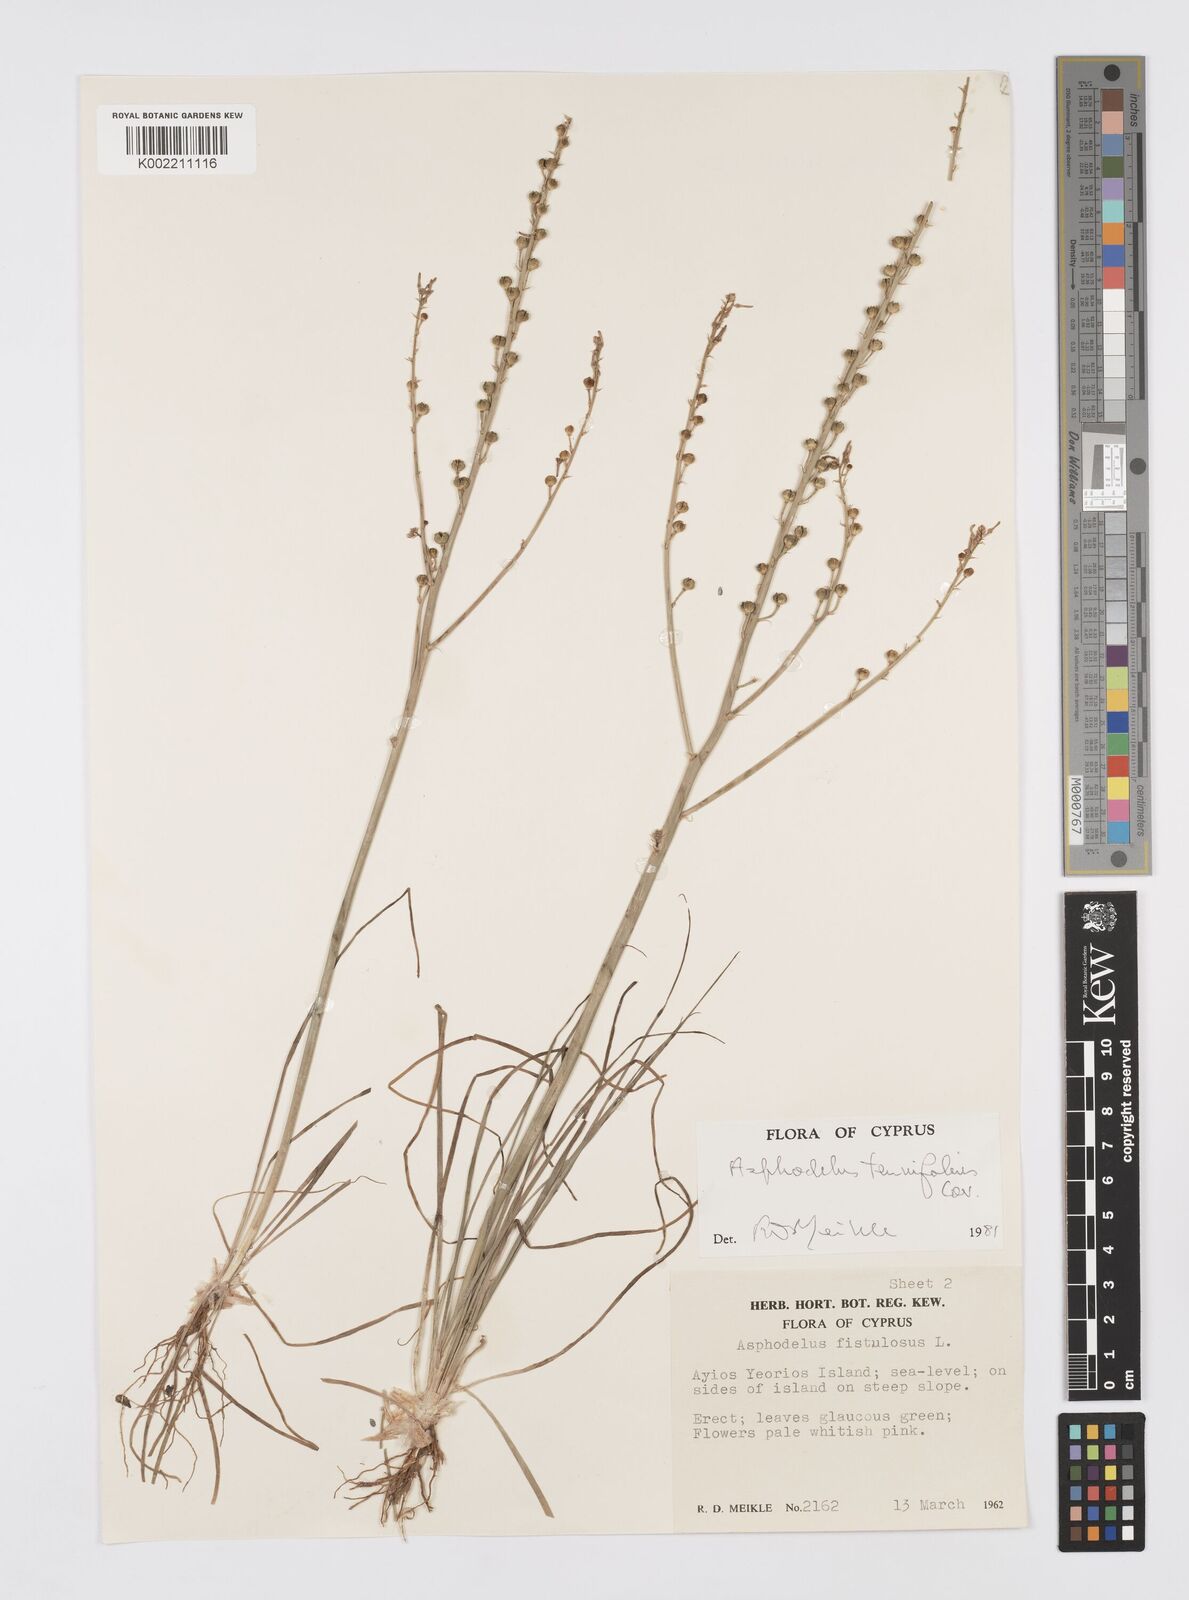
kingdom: Plantae
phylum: Tracheophyta
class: Liliopsida
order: Asparagales
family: Asphodelaceae
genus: Asphodelus
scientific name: Asphodelus tenuifolius
